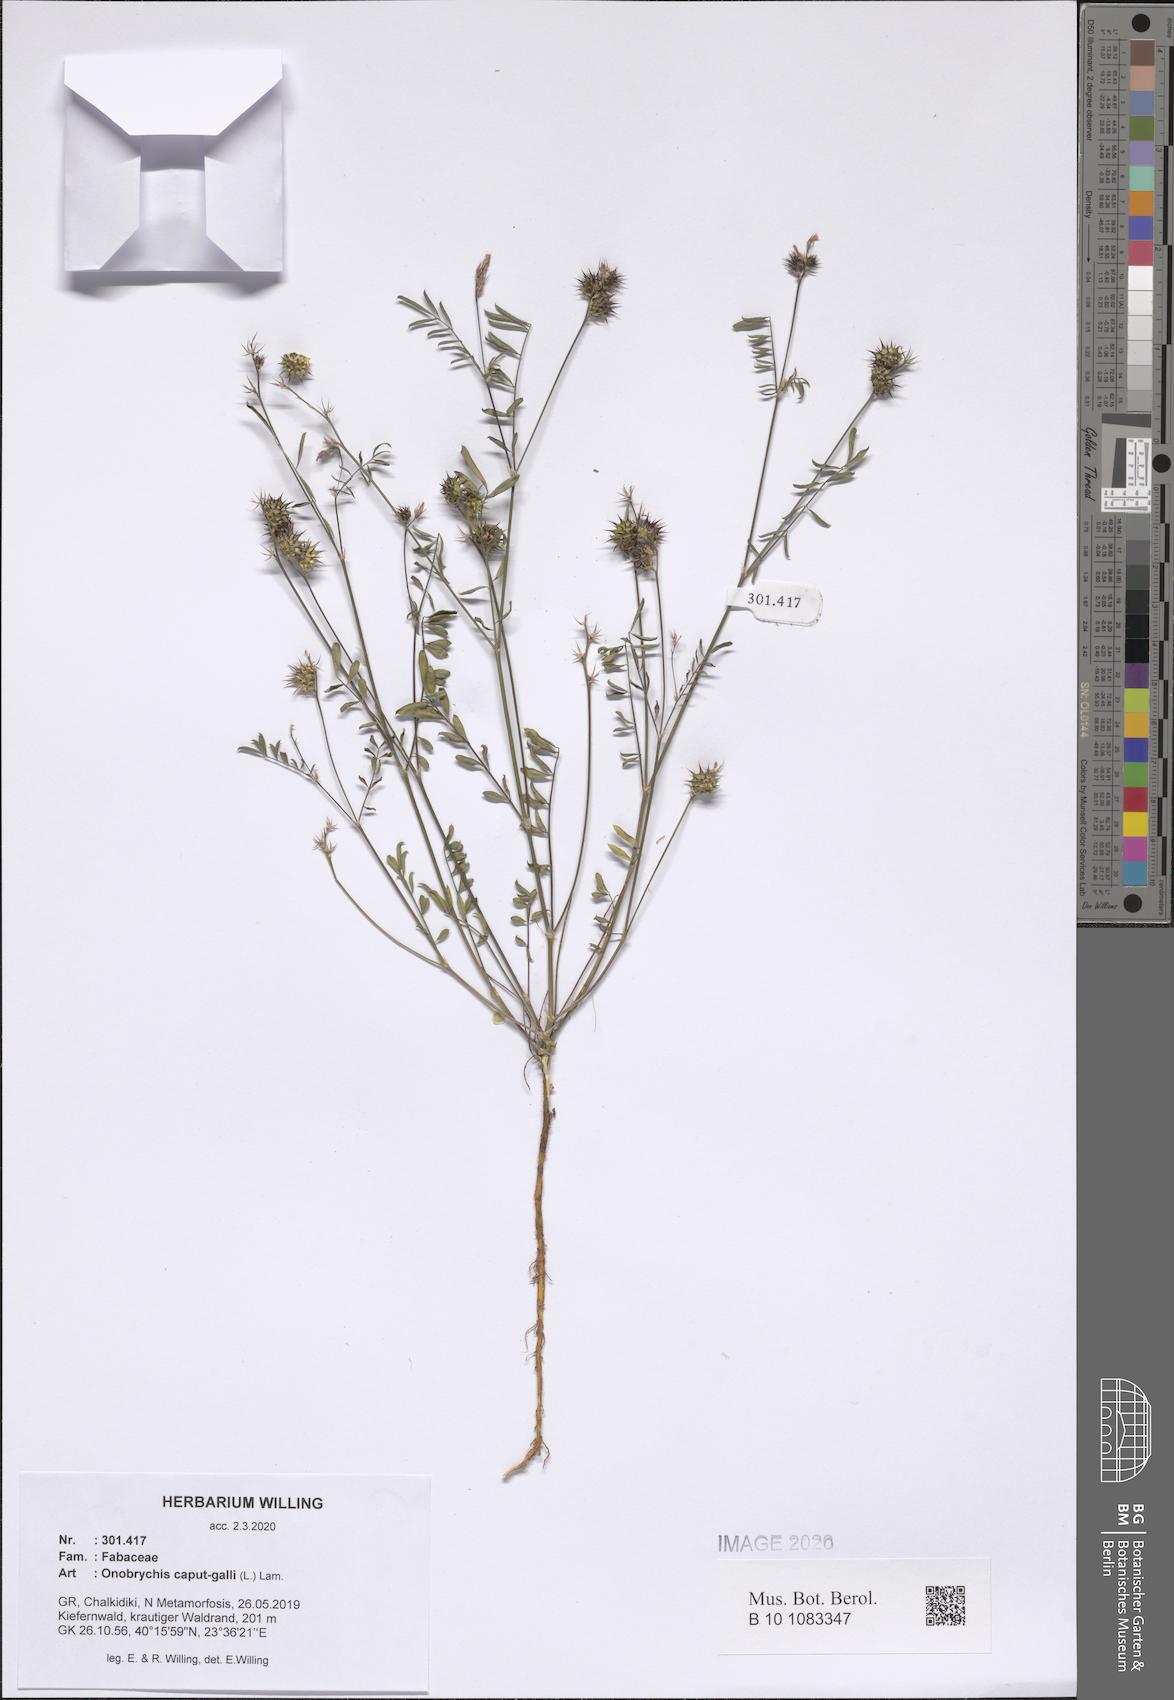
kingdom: Plantae
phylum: Tracheophyta
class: Magnoliopsida
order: Fabales
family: Fabaceae
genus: Onobrychis
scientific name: Onobrychis caput-galli
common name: Cockscomb sainfoin
